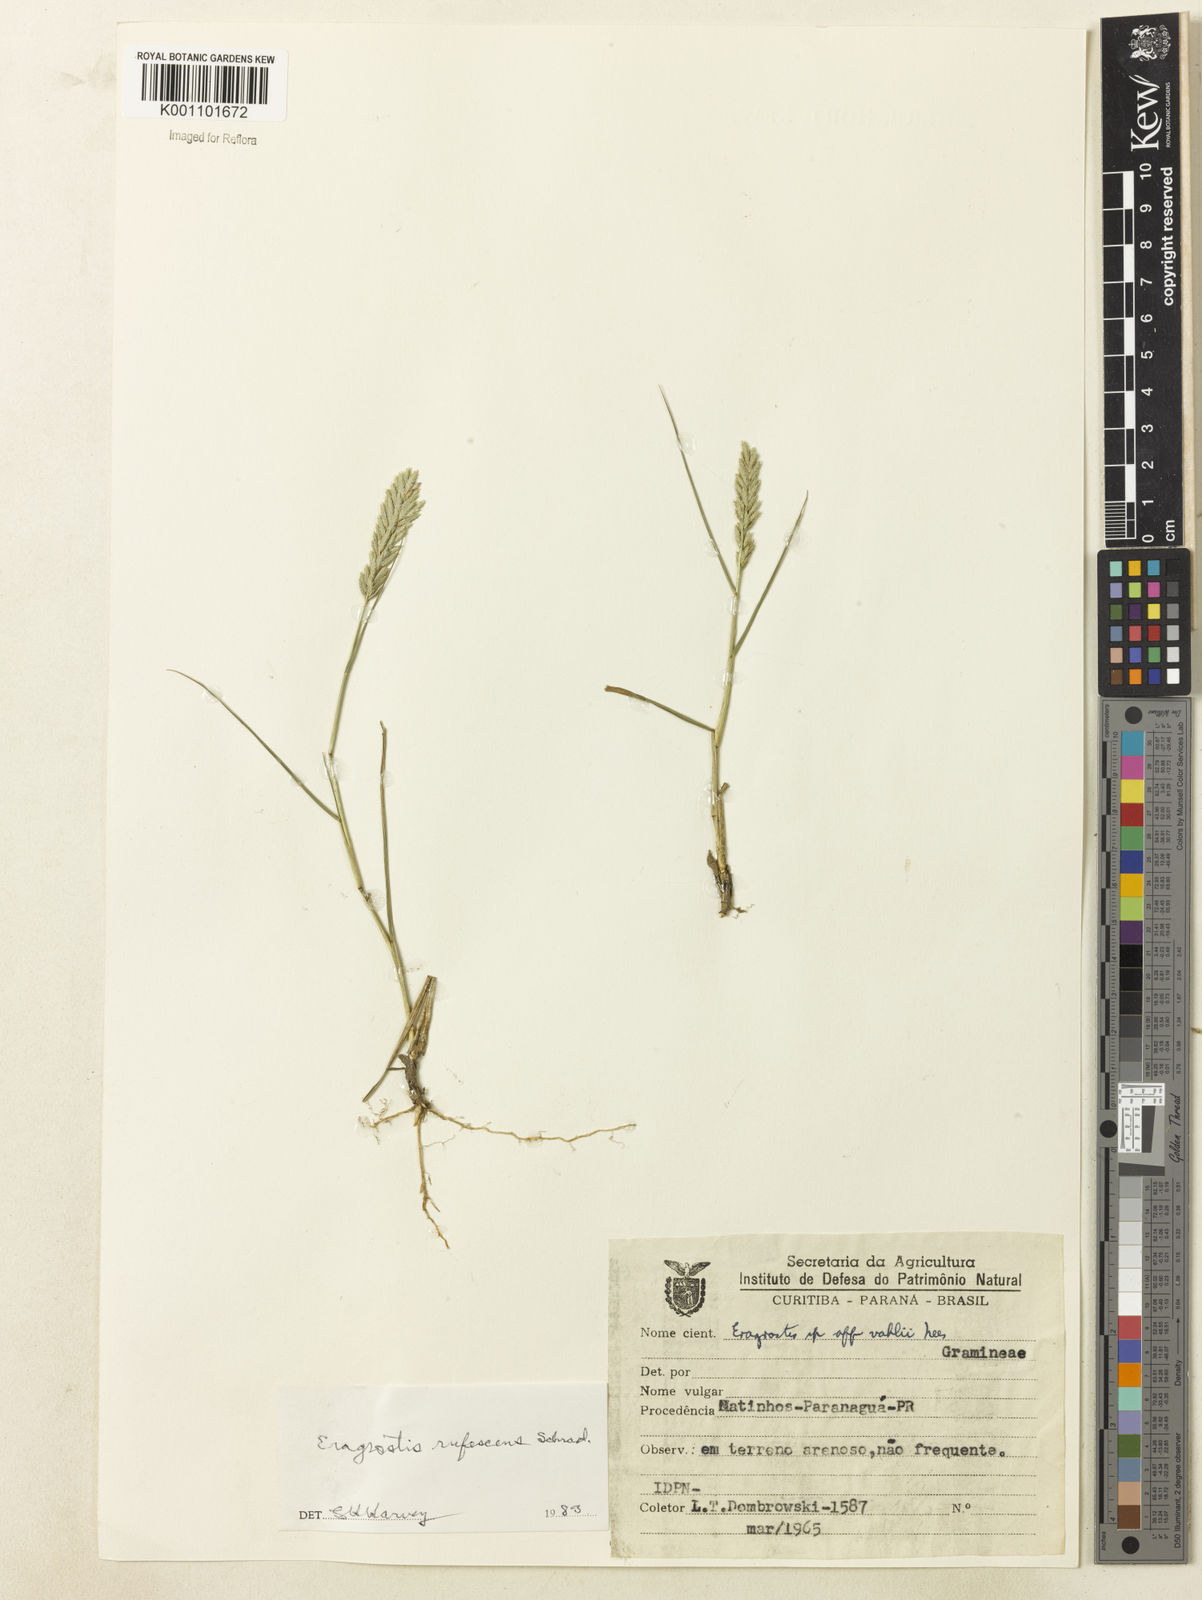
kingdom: Plantae
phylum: Tracheophyta
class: Liliopsida
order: Poales
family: Poaceae
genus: Eragrostis
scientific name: Eragrostis cataclasta
